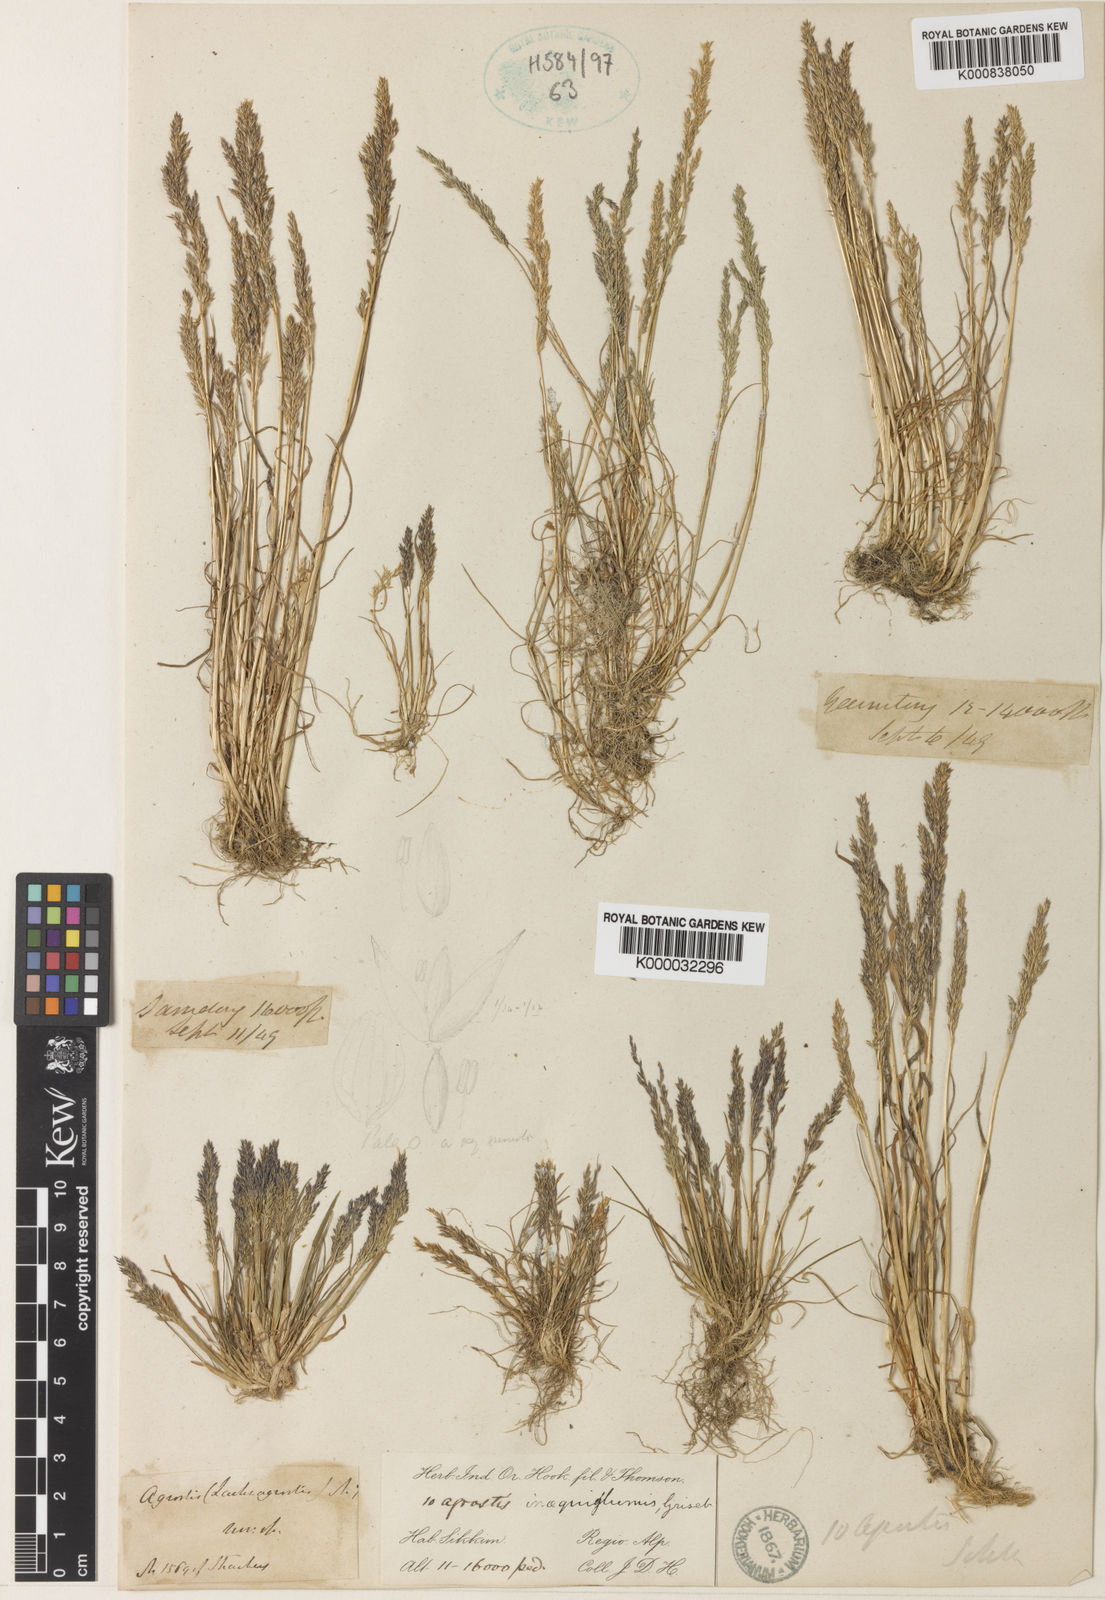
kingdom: Plantae
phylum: Tracheophyta
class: Liliopsida
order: Poales
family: Poaceae
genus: Agrostis
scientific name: Agrostis inaequiglumis
